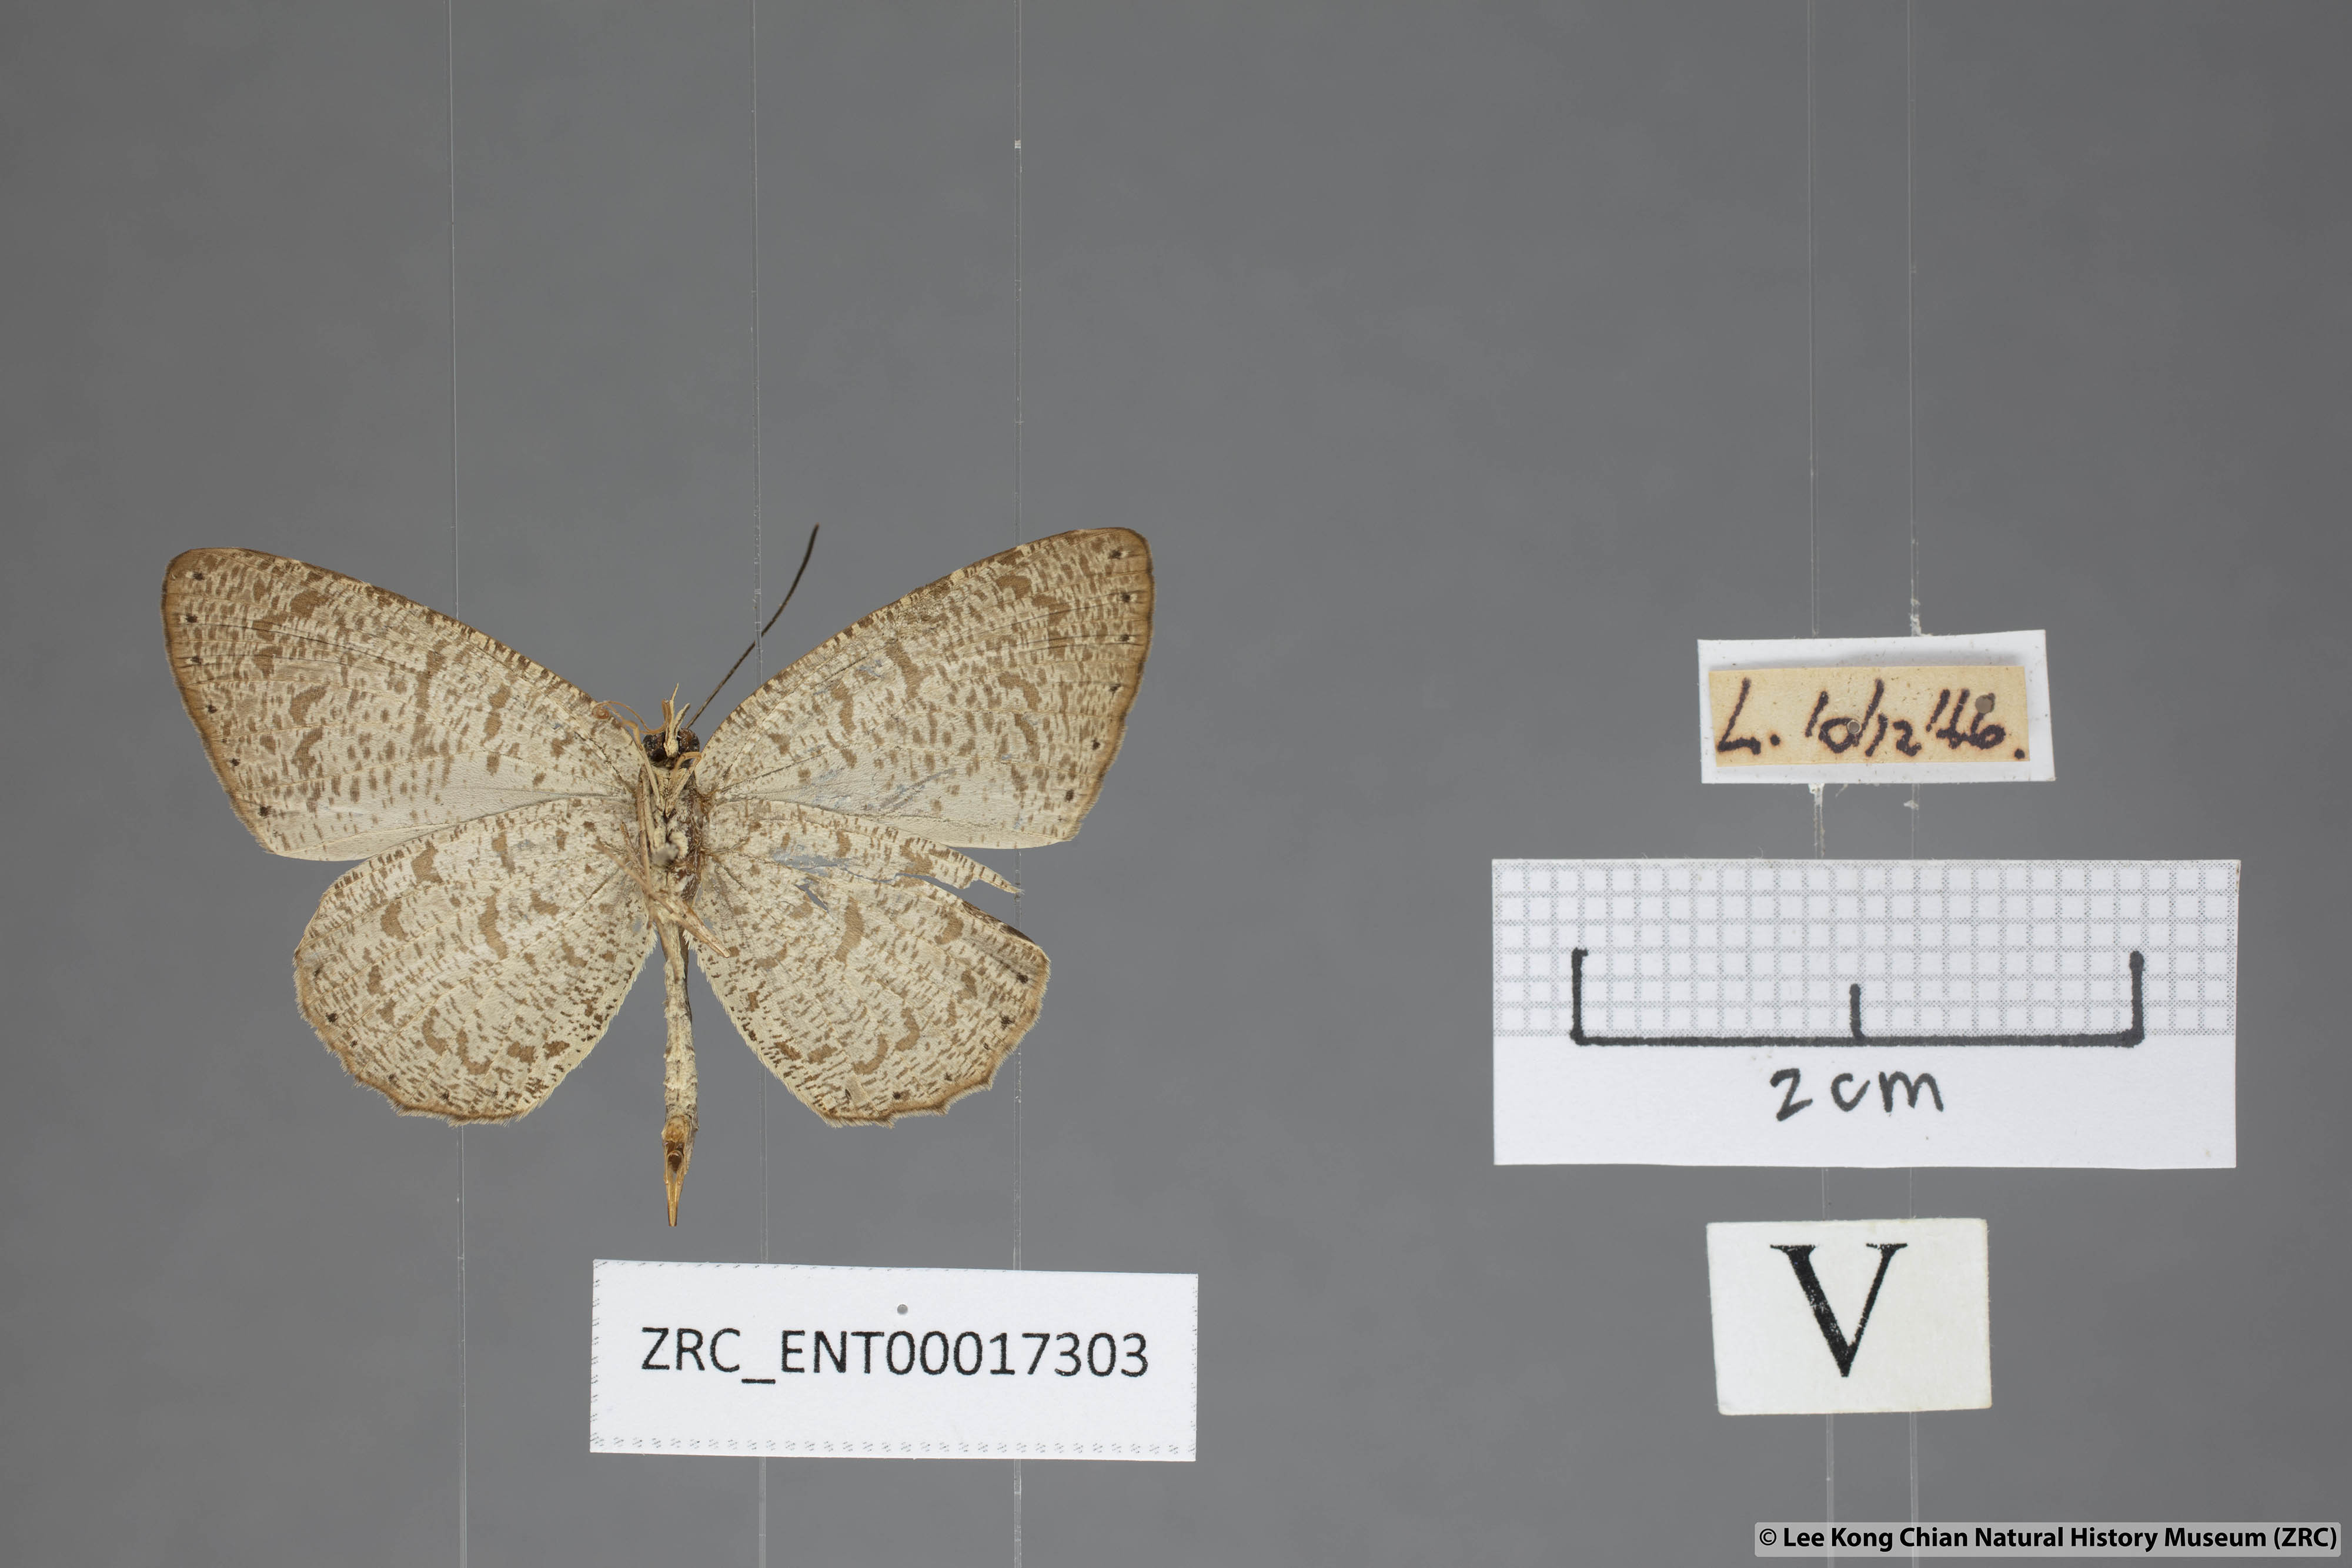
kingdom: Animalia
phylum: Arthropoda
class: Insecta
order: Lepidoptera
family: Lycaenidae
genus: Allotinus
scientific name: Allotinus strigatus
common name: Small malayan darkie
